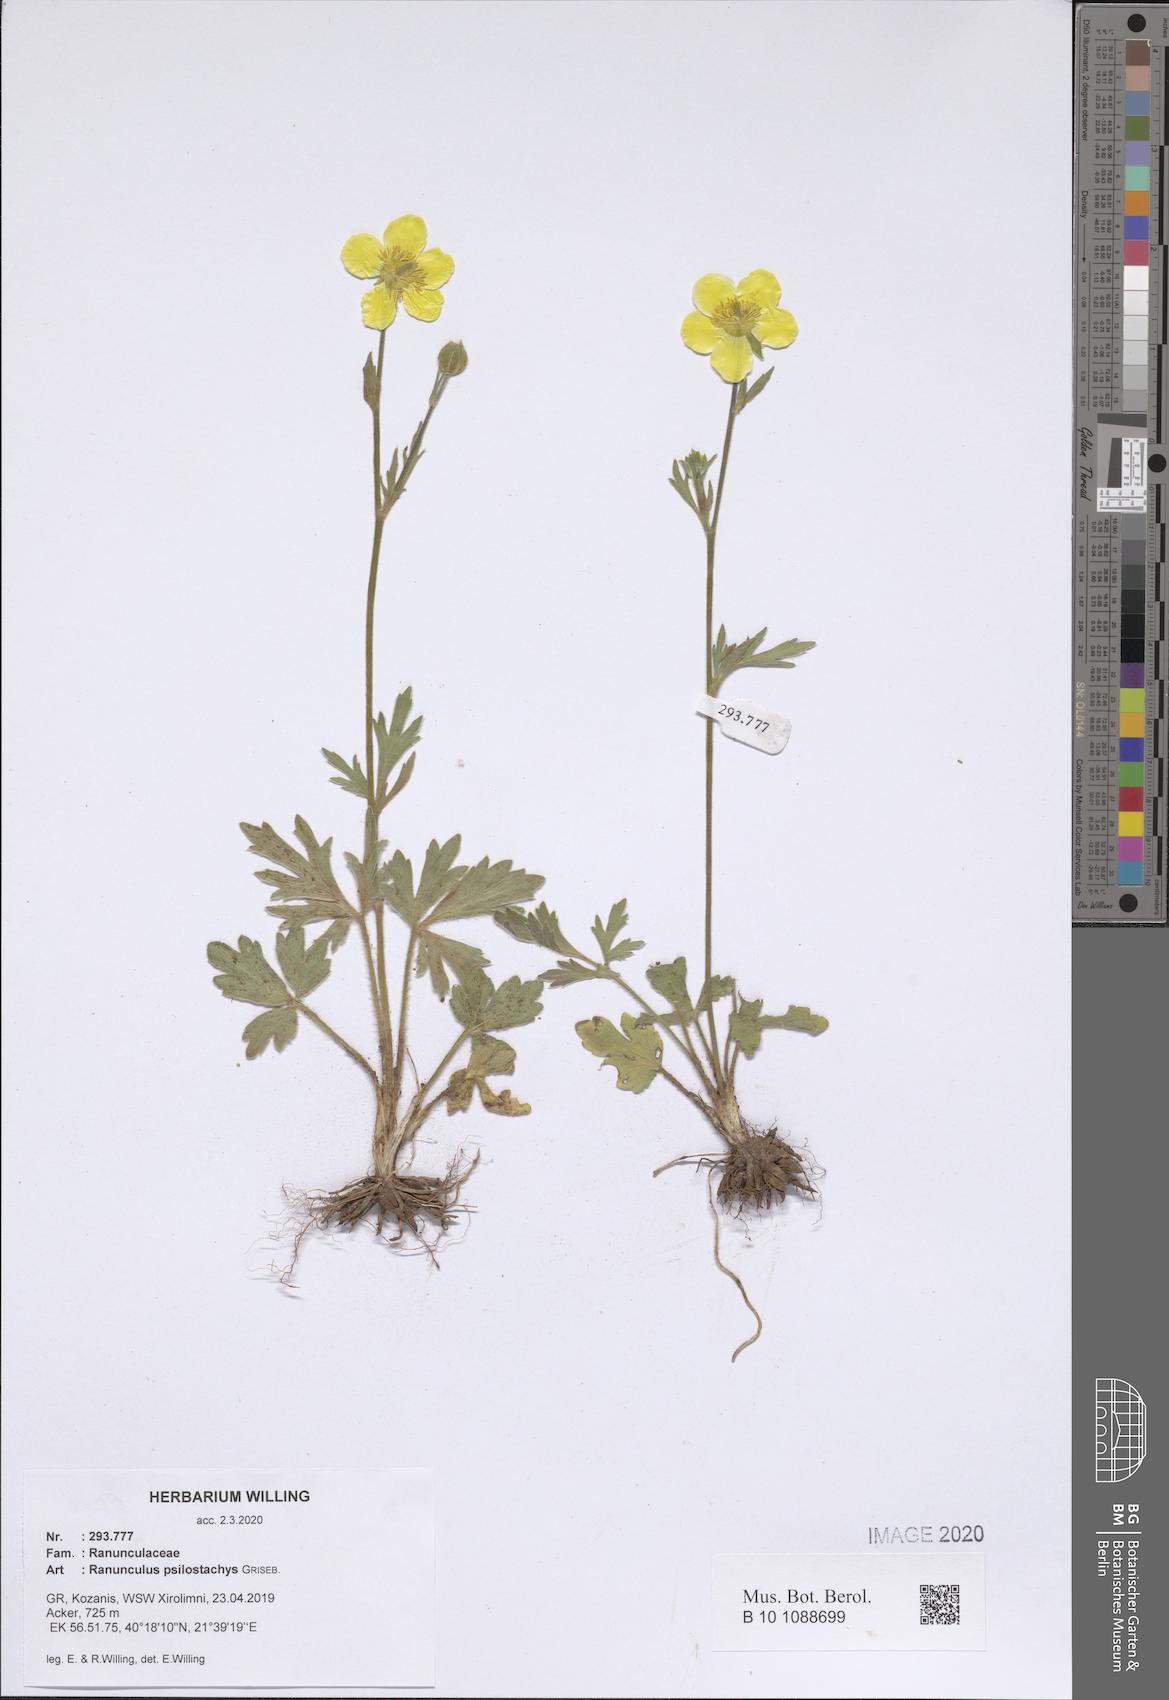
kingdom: Plantae
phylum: Tracheophyta
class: Magnoliopsida
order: Ranunculales
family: Ranunculaceae
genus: Ranunculus
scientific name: Ranunculus psilostachys
